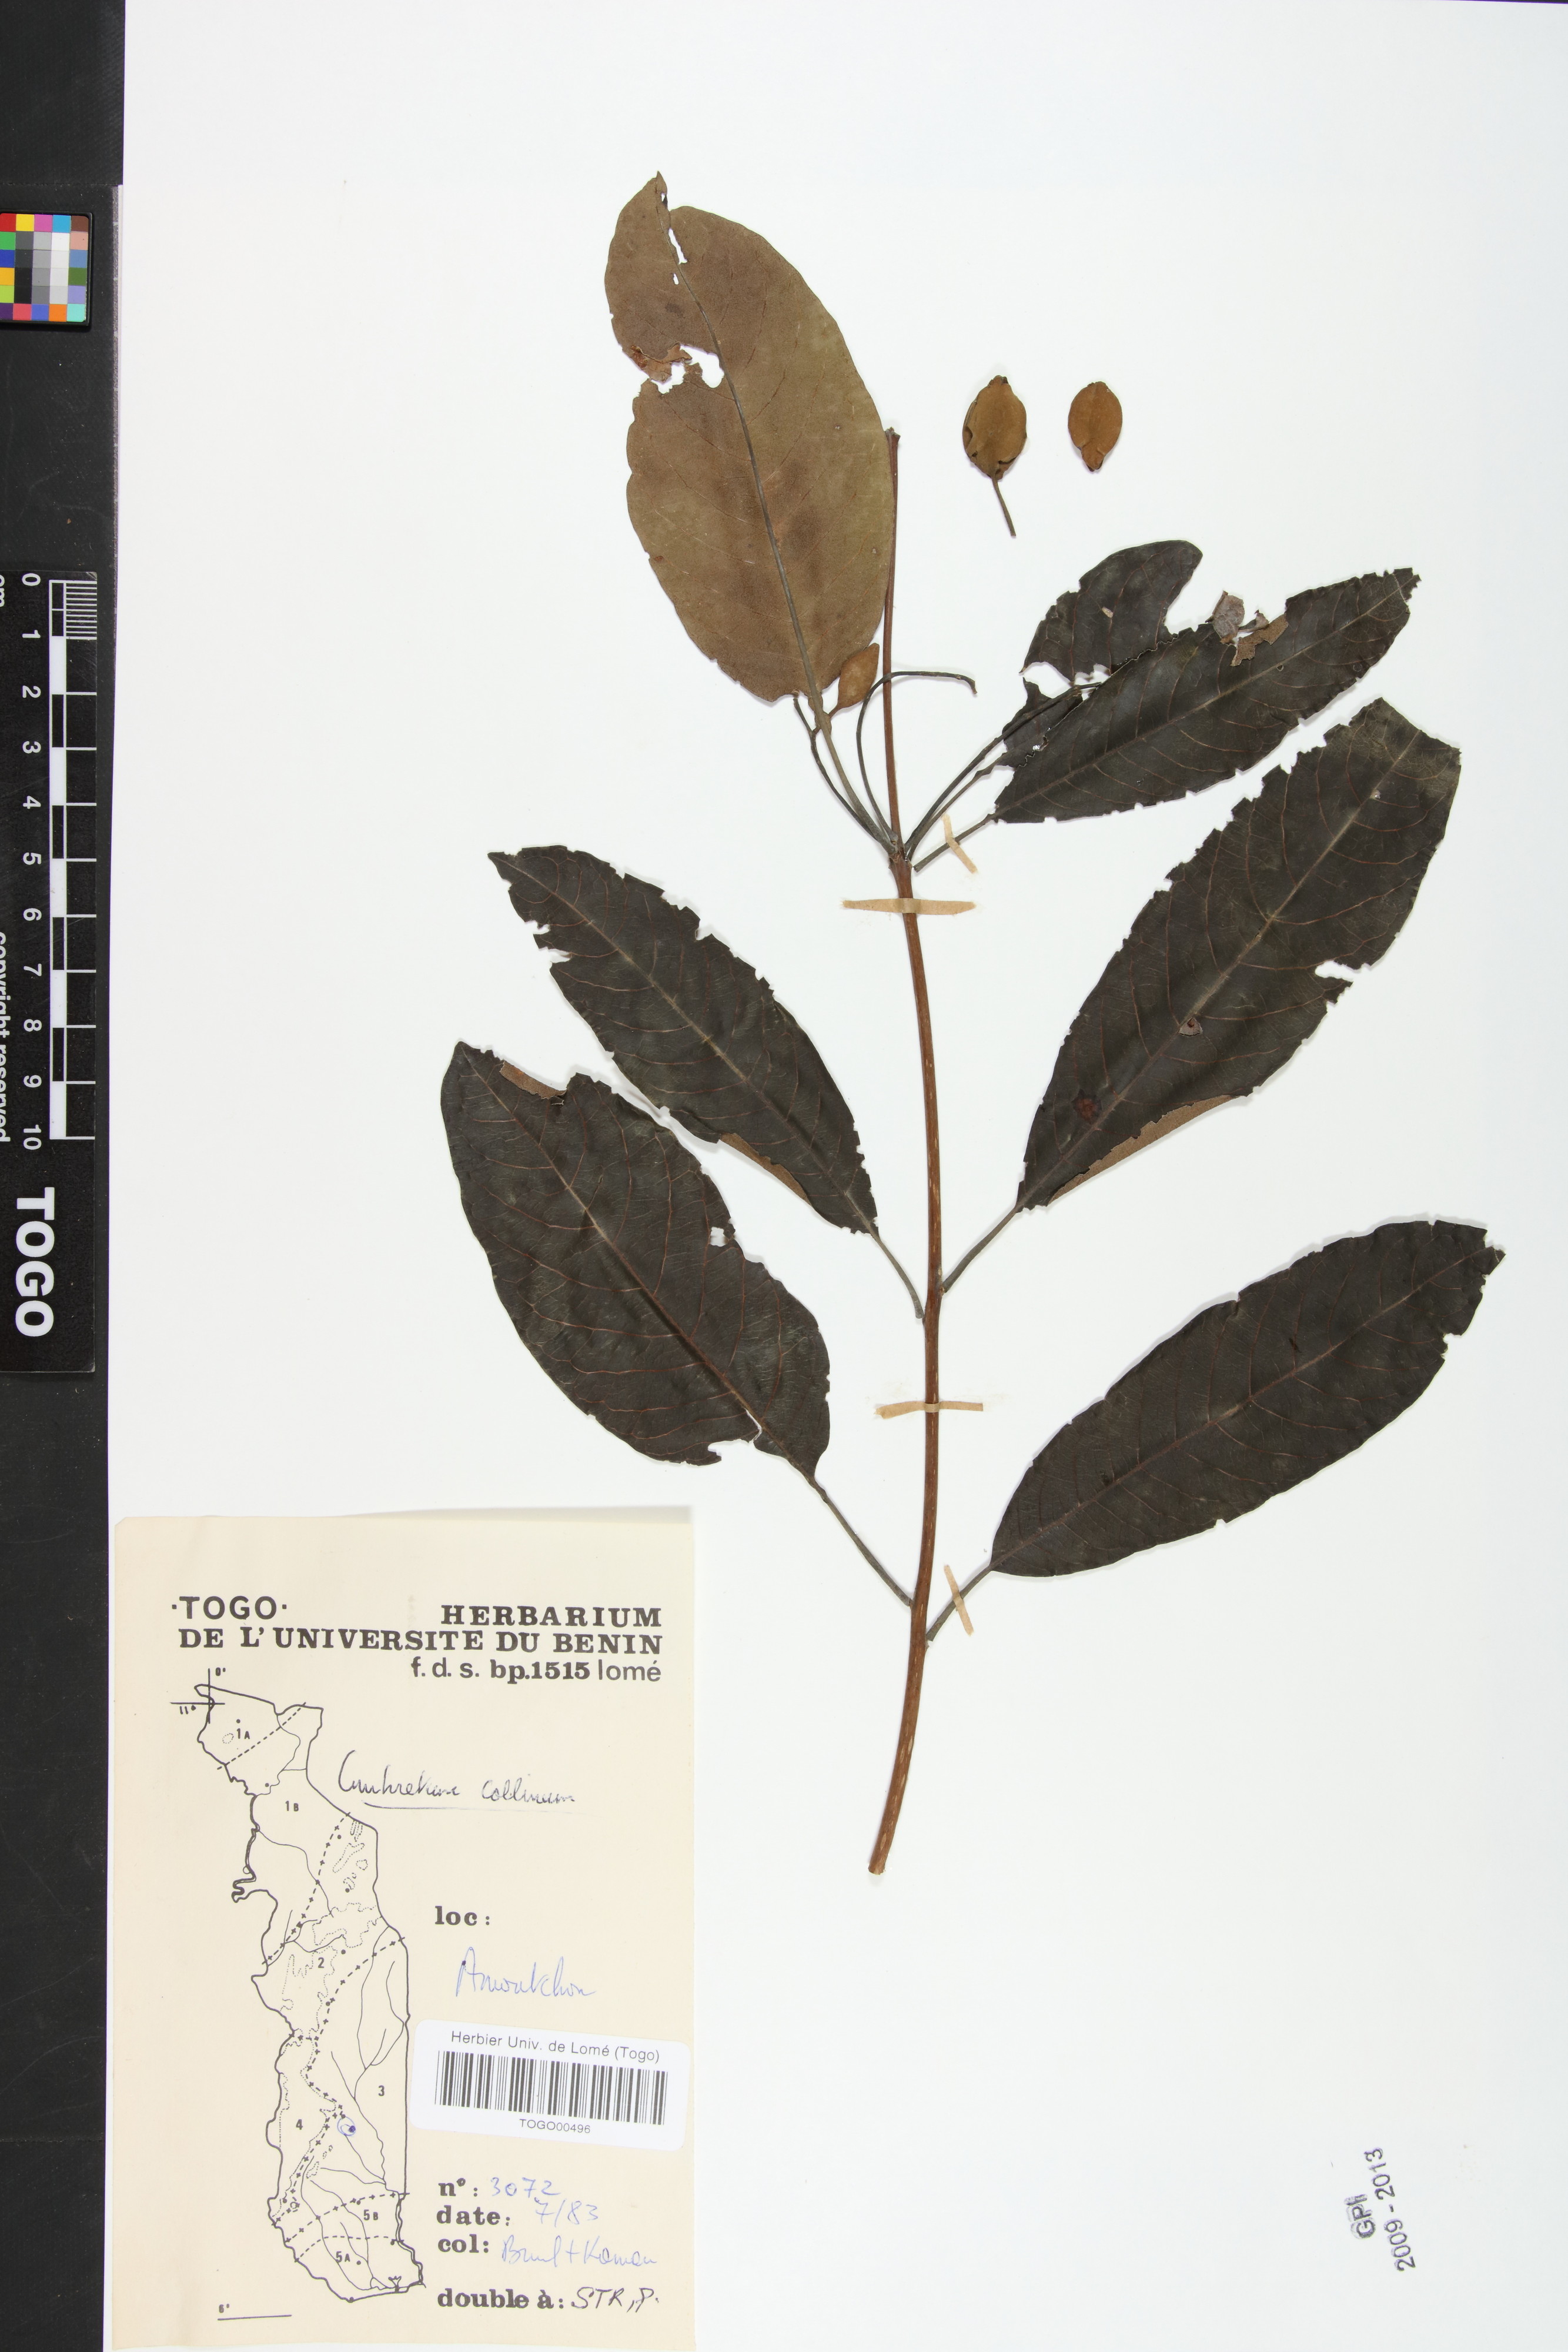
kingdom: Plantae
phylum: Tracheophyta
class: Magnoliopsida
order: Myrtales
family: Combretaceae
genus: Combretum
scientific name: Combretum collinum
